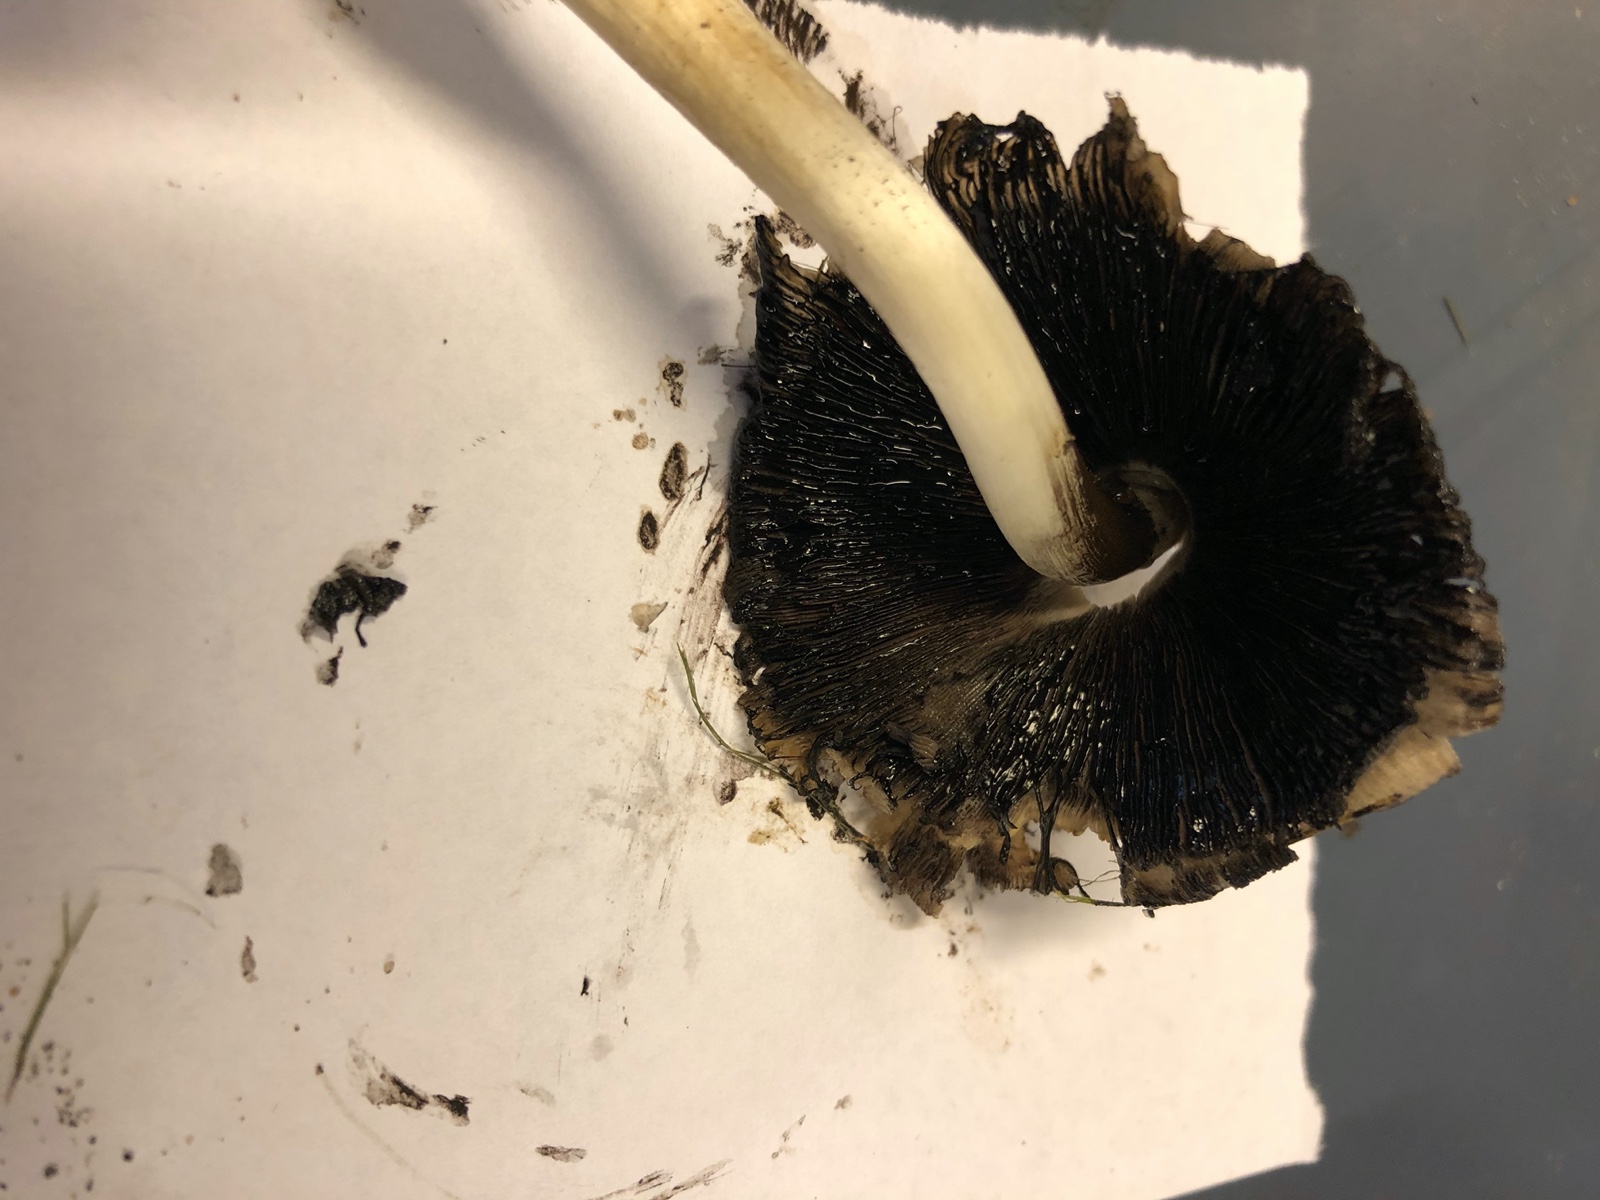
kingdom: Fungi
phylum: Basidiomycota
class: Agaricomycetes
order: Agaricales
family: Psathyrellaceae
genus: Coprinopsis
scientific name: Coprinopsis atramentaria
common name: almindelig blækhat
